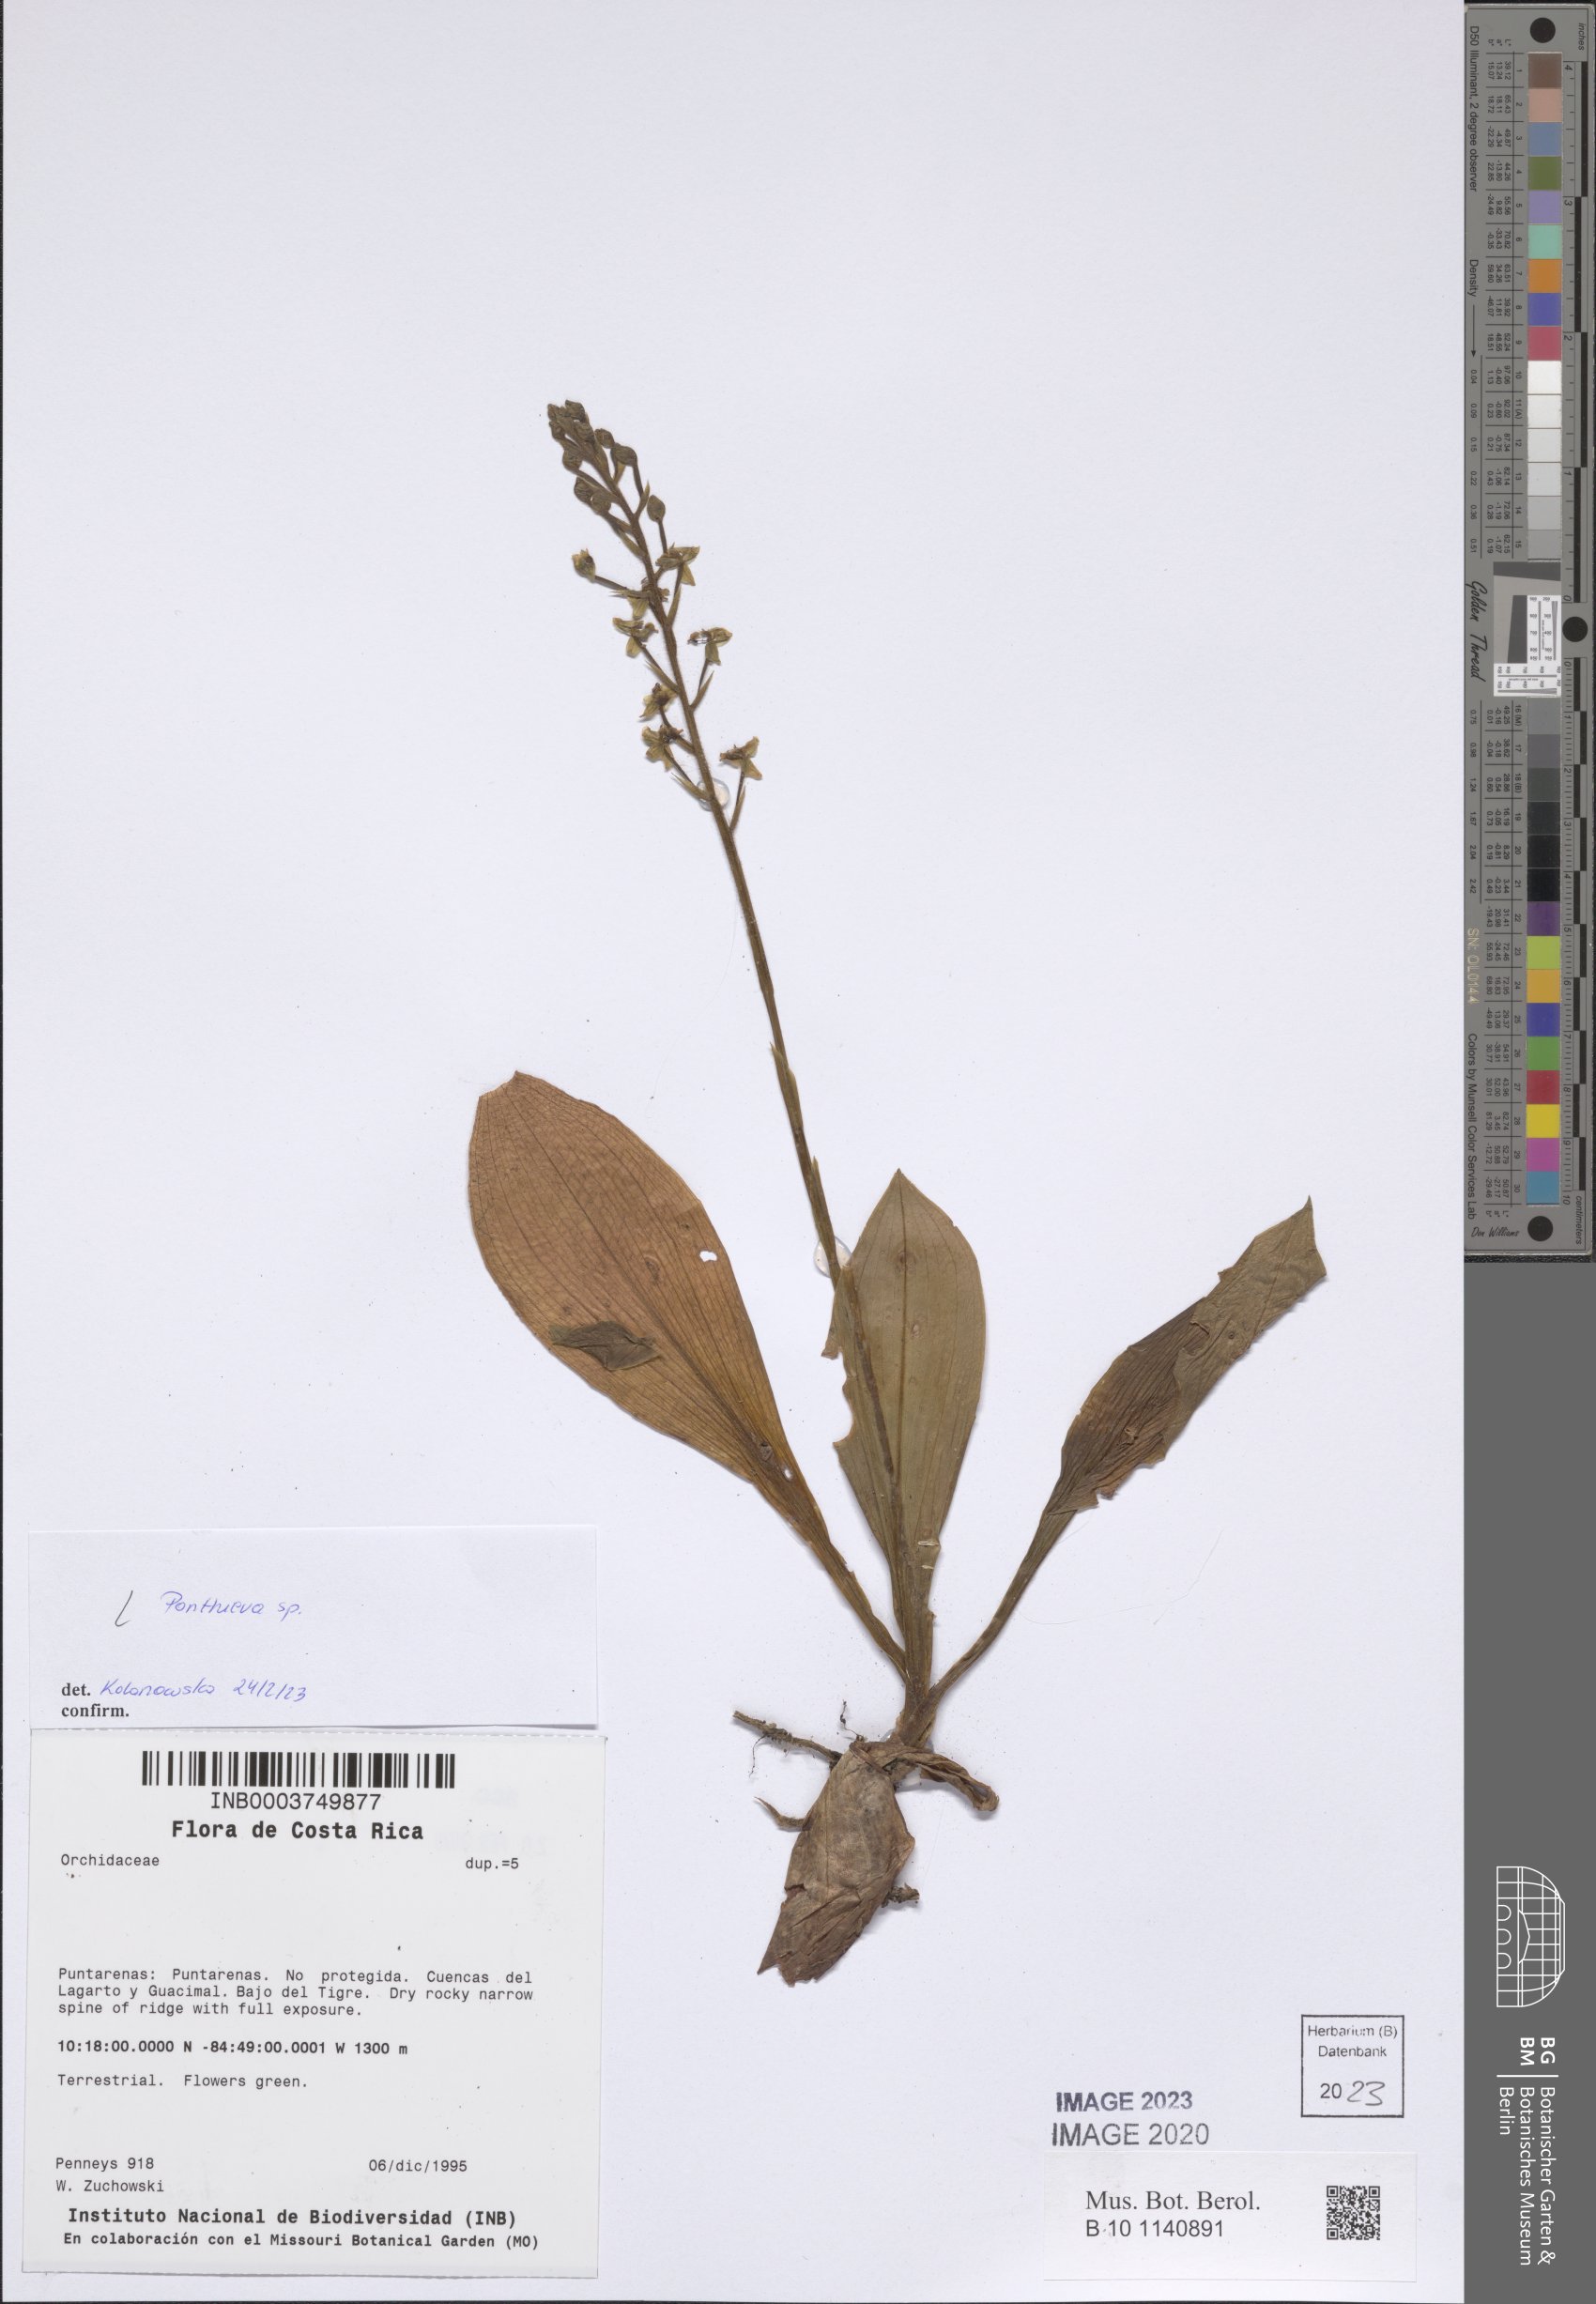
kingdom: Plantae
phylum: Tracheophyta
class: Liliopsida
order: Asparagales
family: Orchidaceae
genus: Ponthieva
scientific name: Ponthieva
